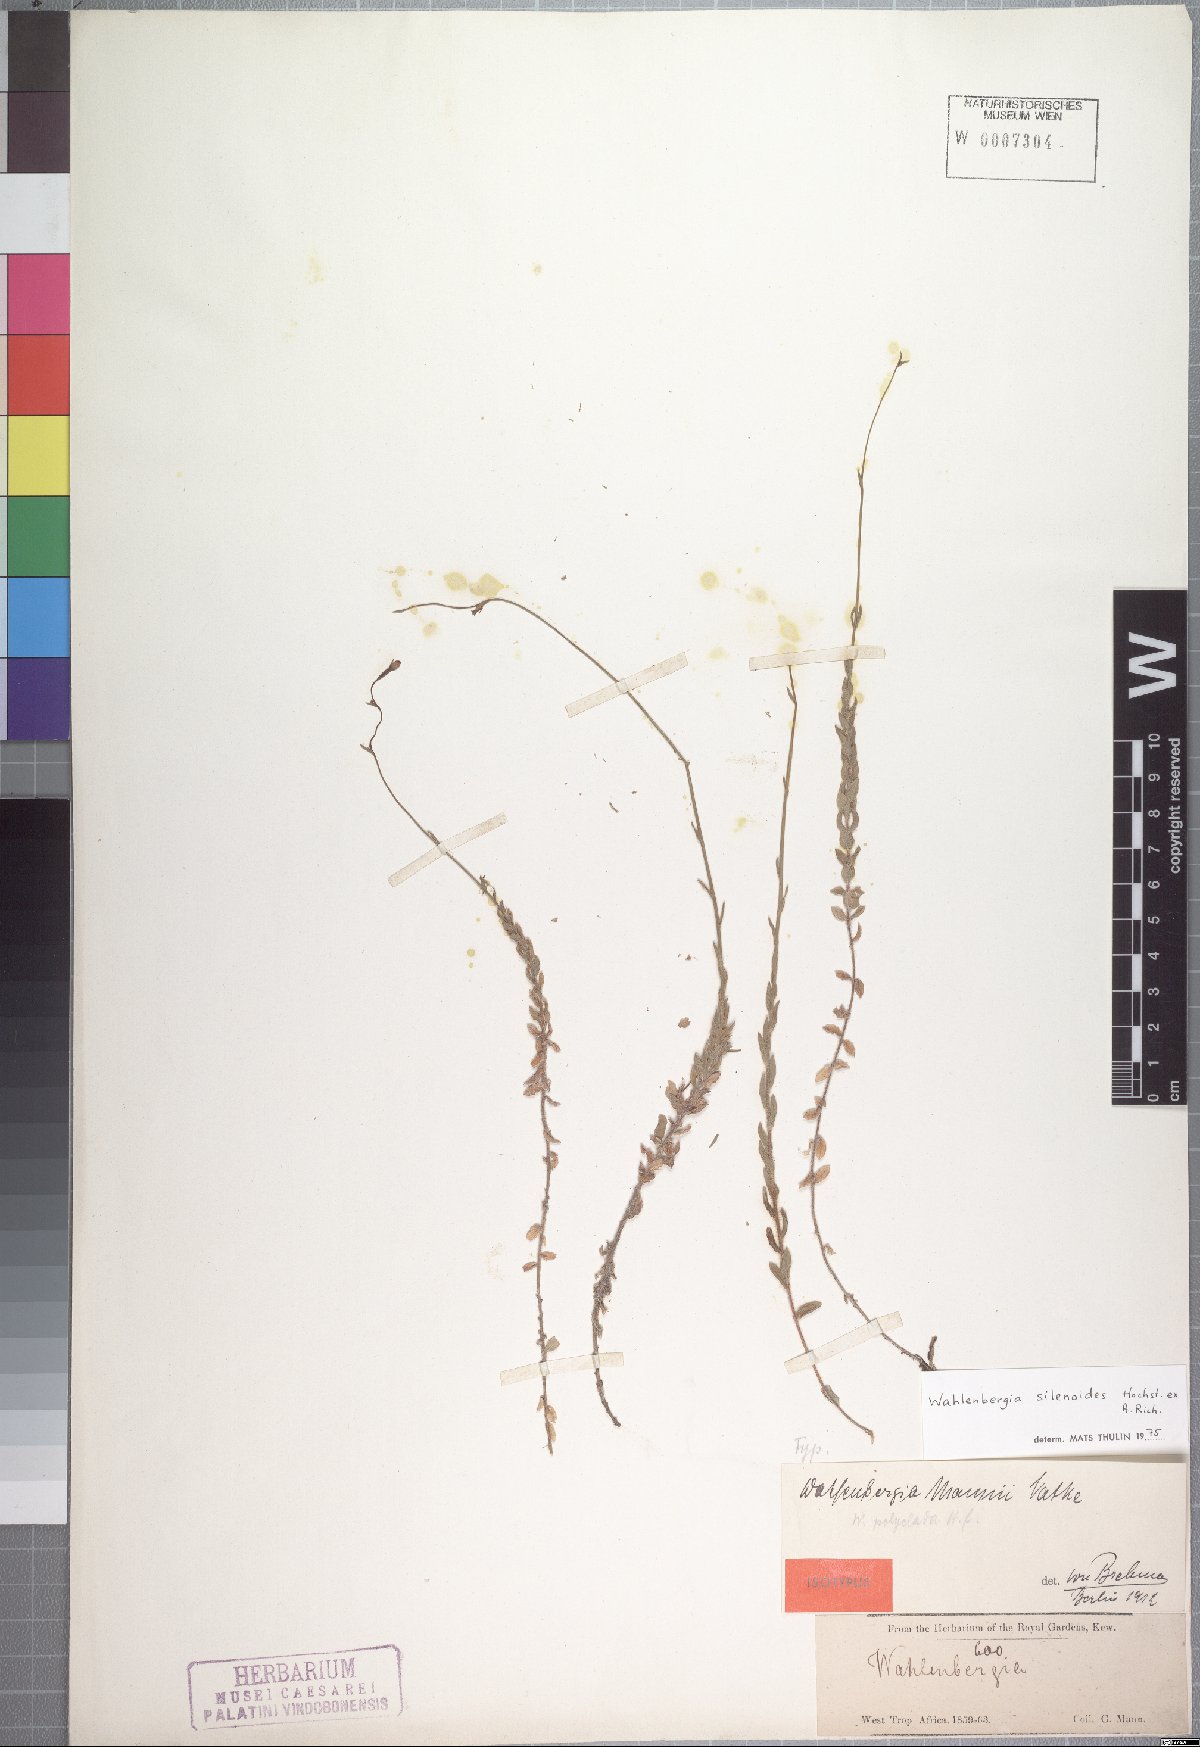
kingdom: Plantae
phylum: Tracheophyta
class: Magnoliopsida
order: Asterales
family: Campanulaceae
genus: Wahlenbergia
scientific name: Wahlenbergia silenoides
